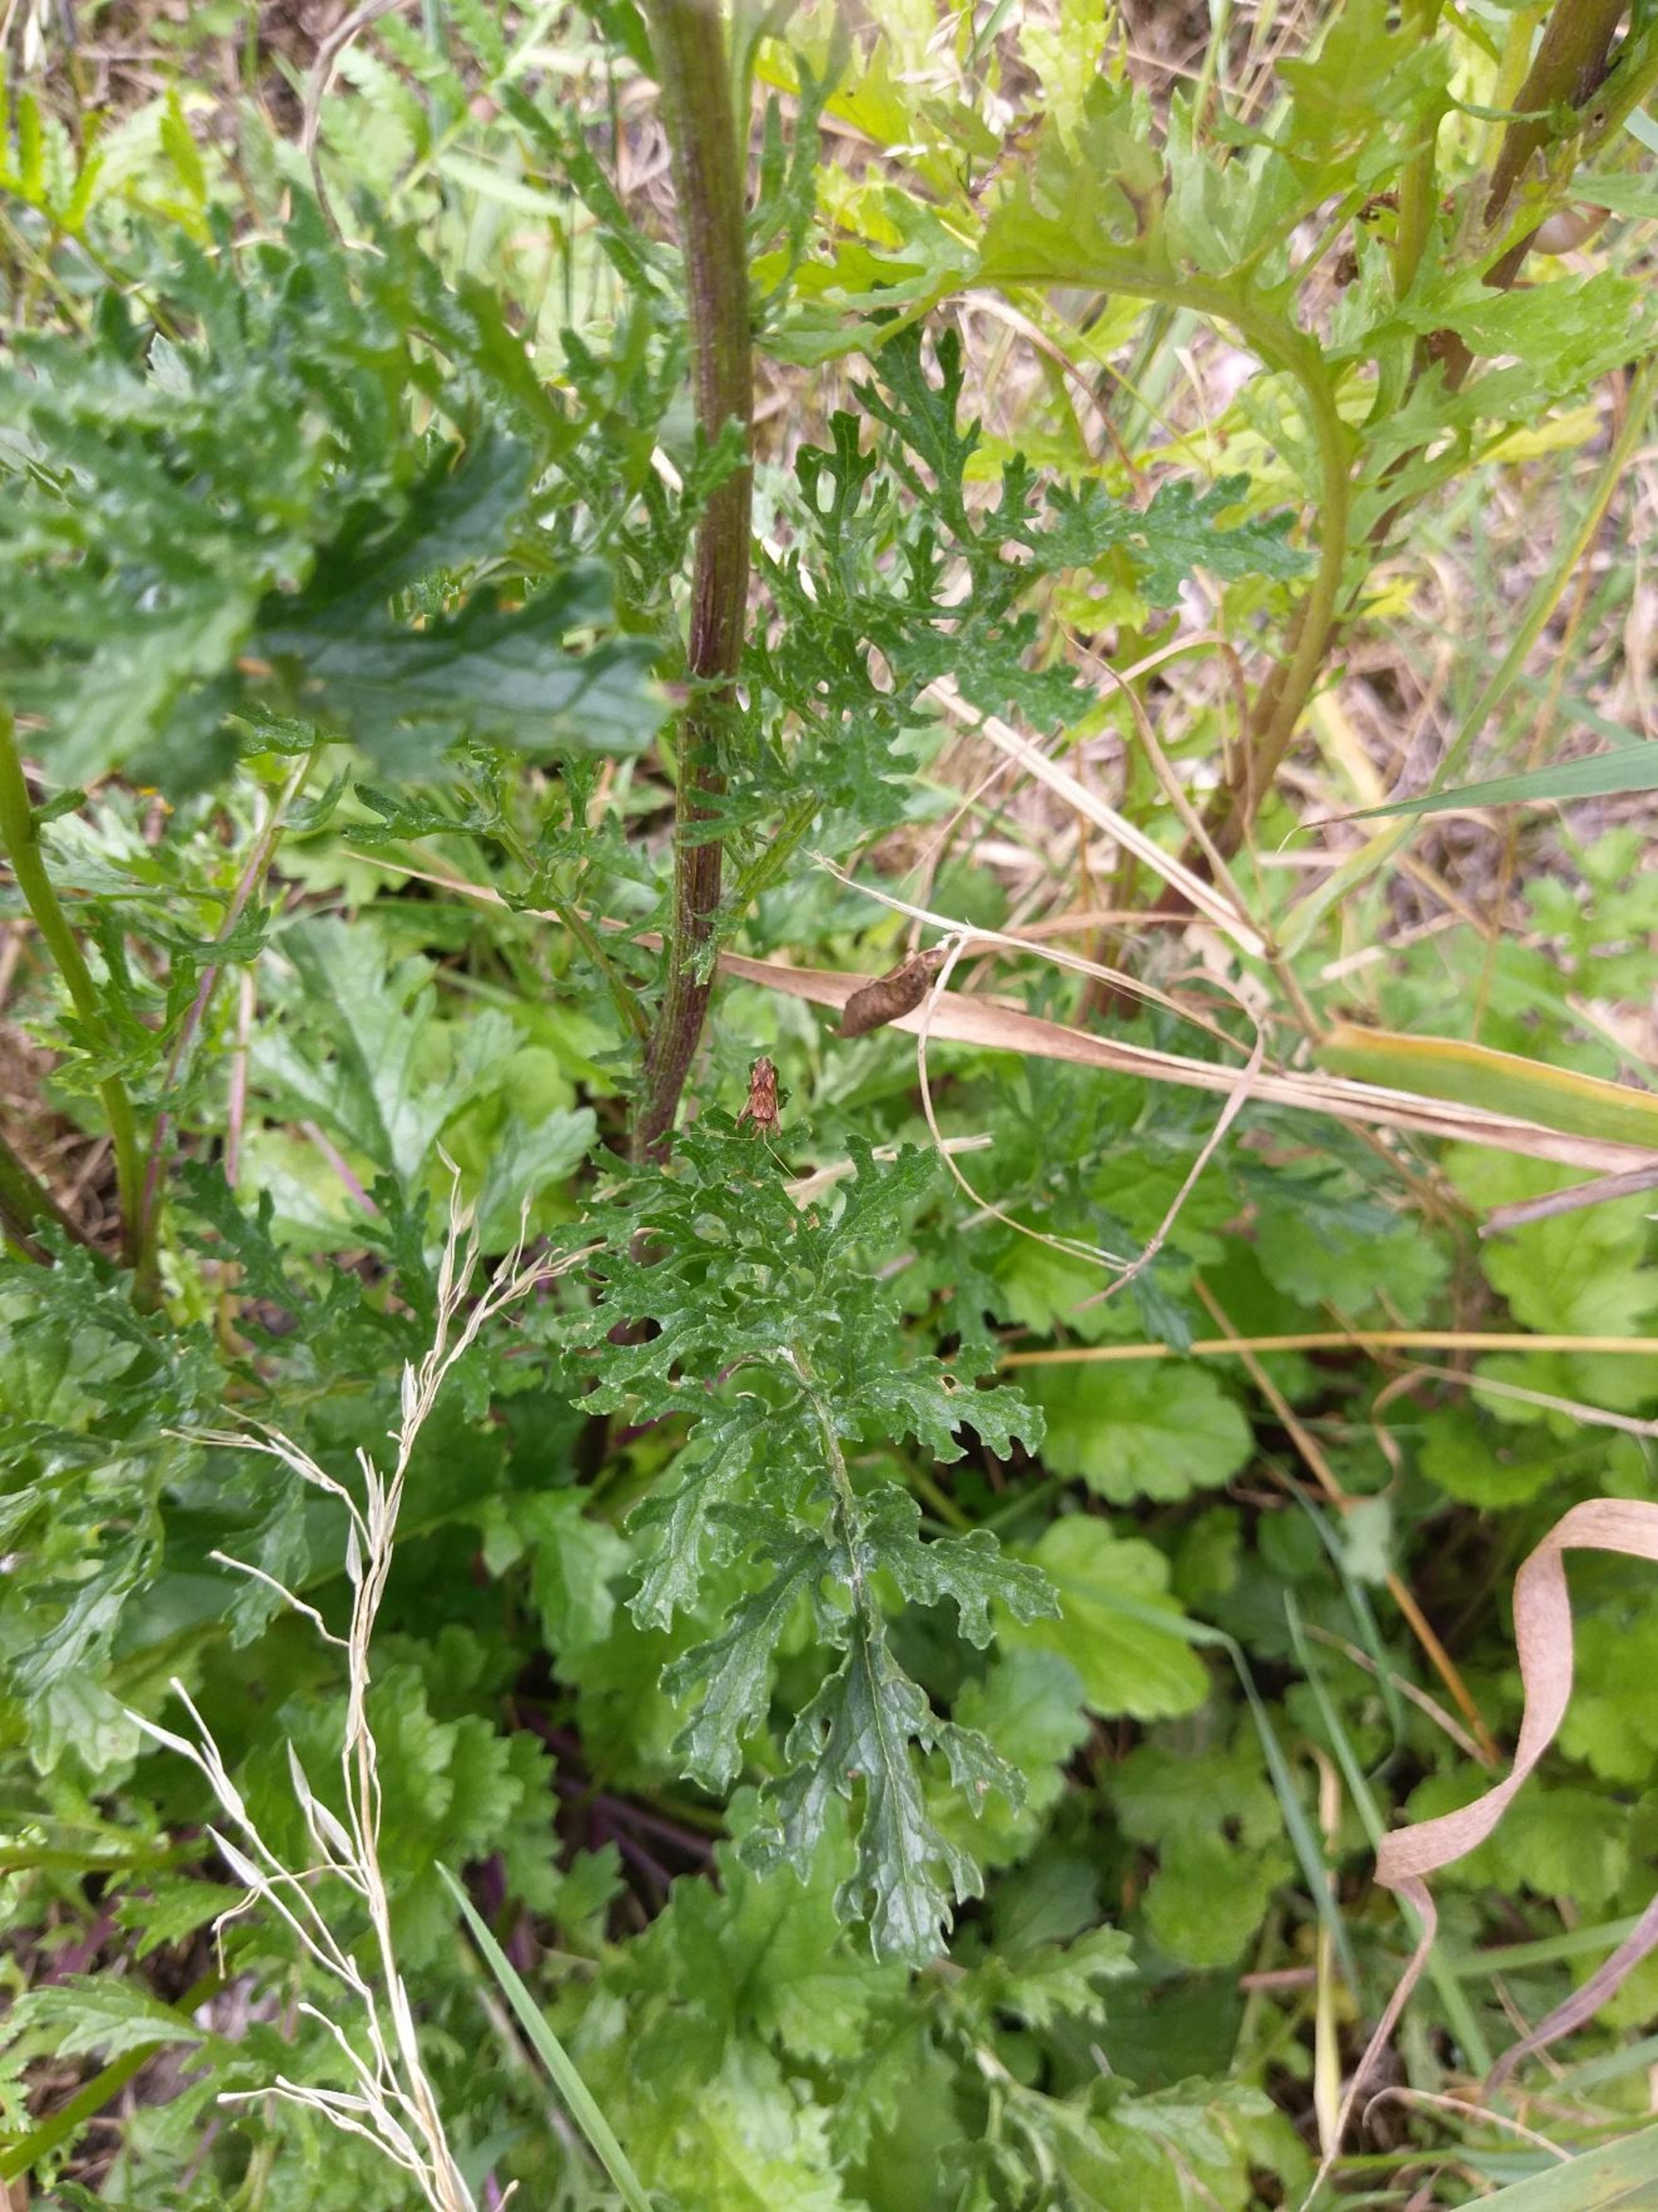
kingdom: Plantae
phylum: Tracheophyta
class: Magnoliopsida
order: Asterales
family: Asteraceae
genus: Jacobaea
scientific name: Jacobaea vulgaris
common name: Eng-brandbæger
